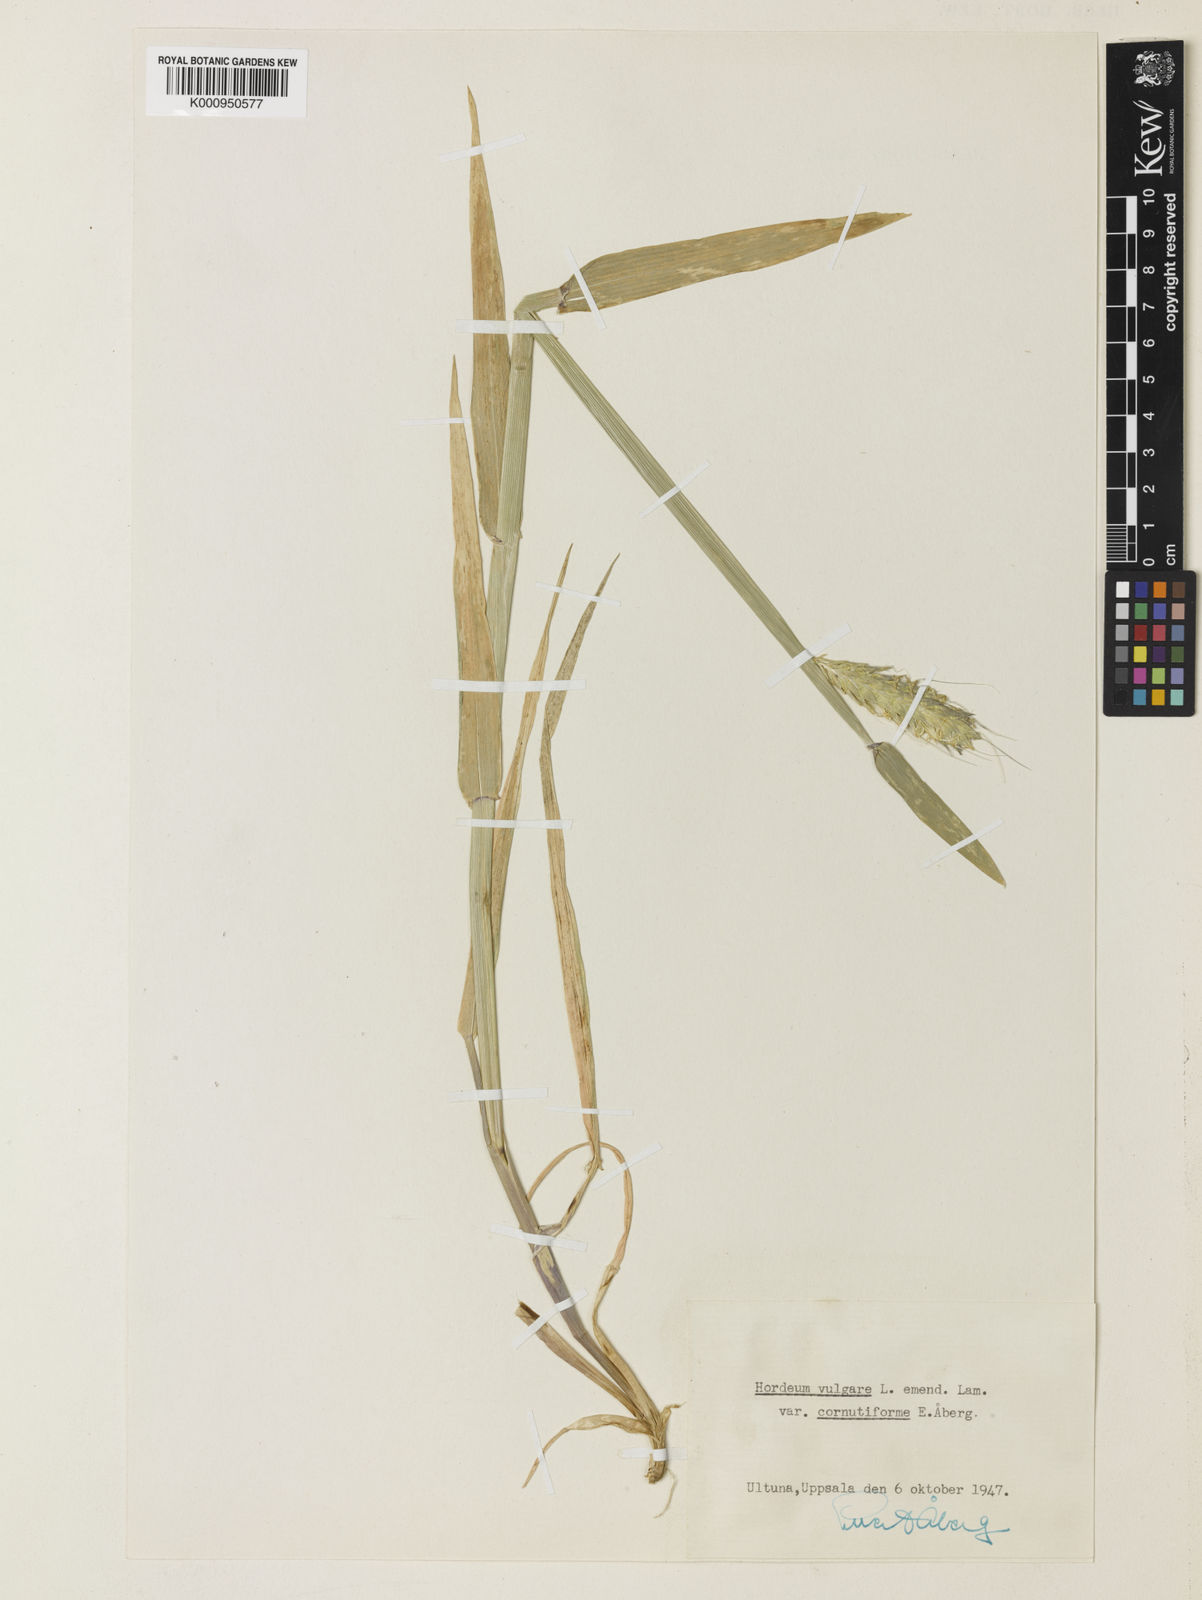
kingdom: Plantae
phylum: Tracheophyta
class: Liliopsida
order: Poales
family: Poaceae
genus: Hordeum
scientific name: Hordeum vulgare
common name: Common barley
